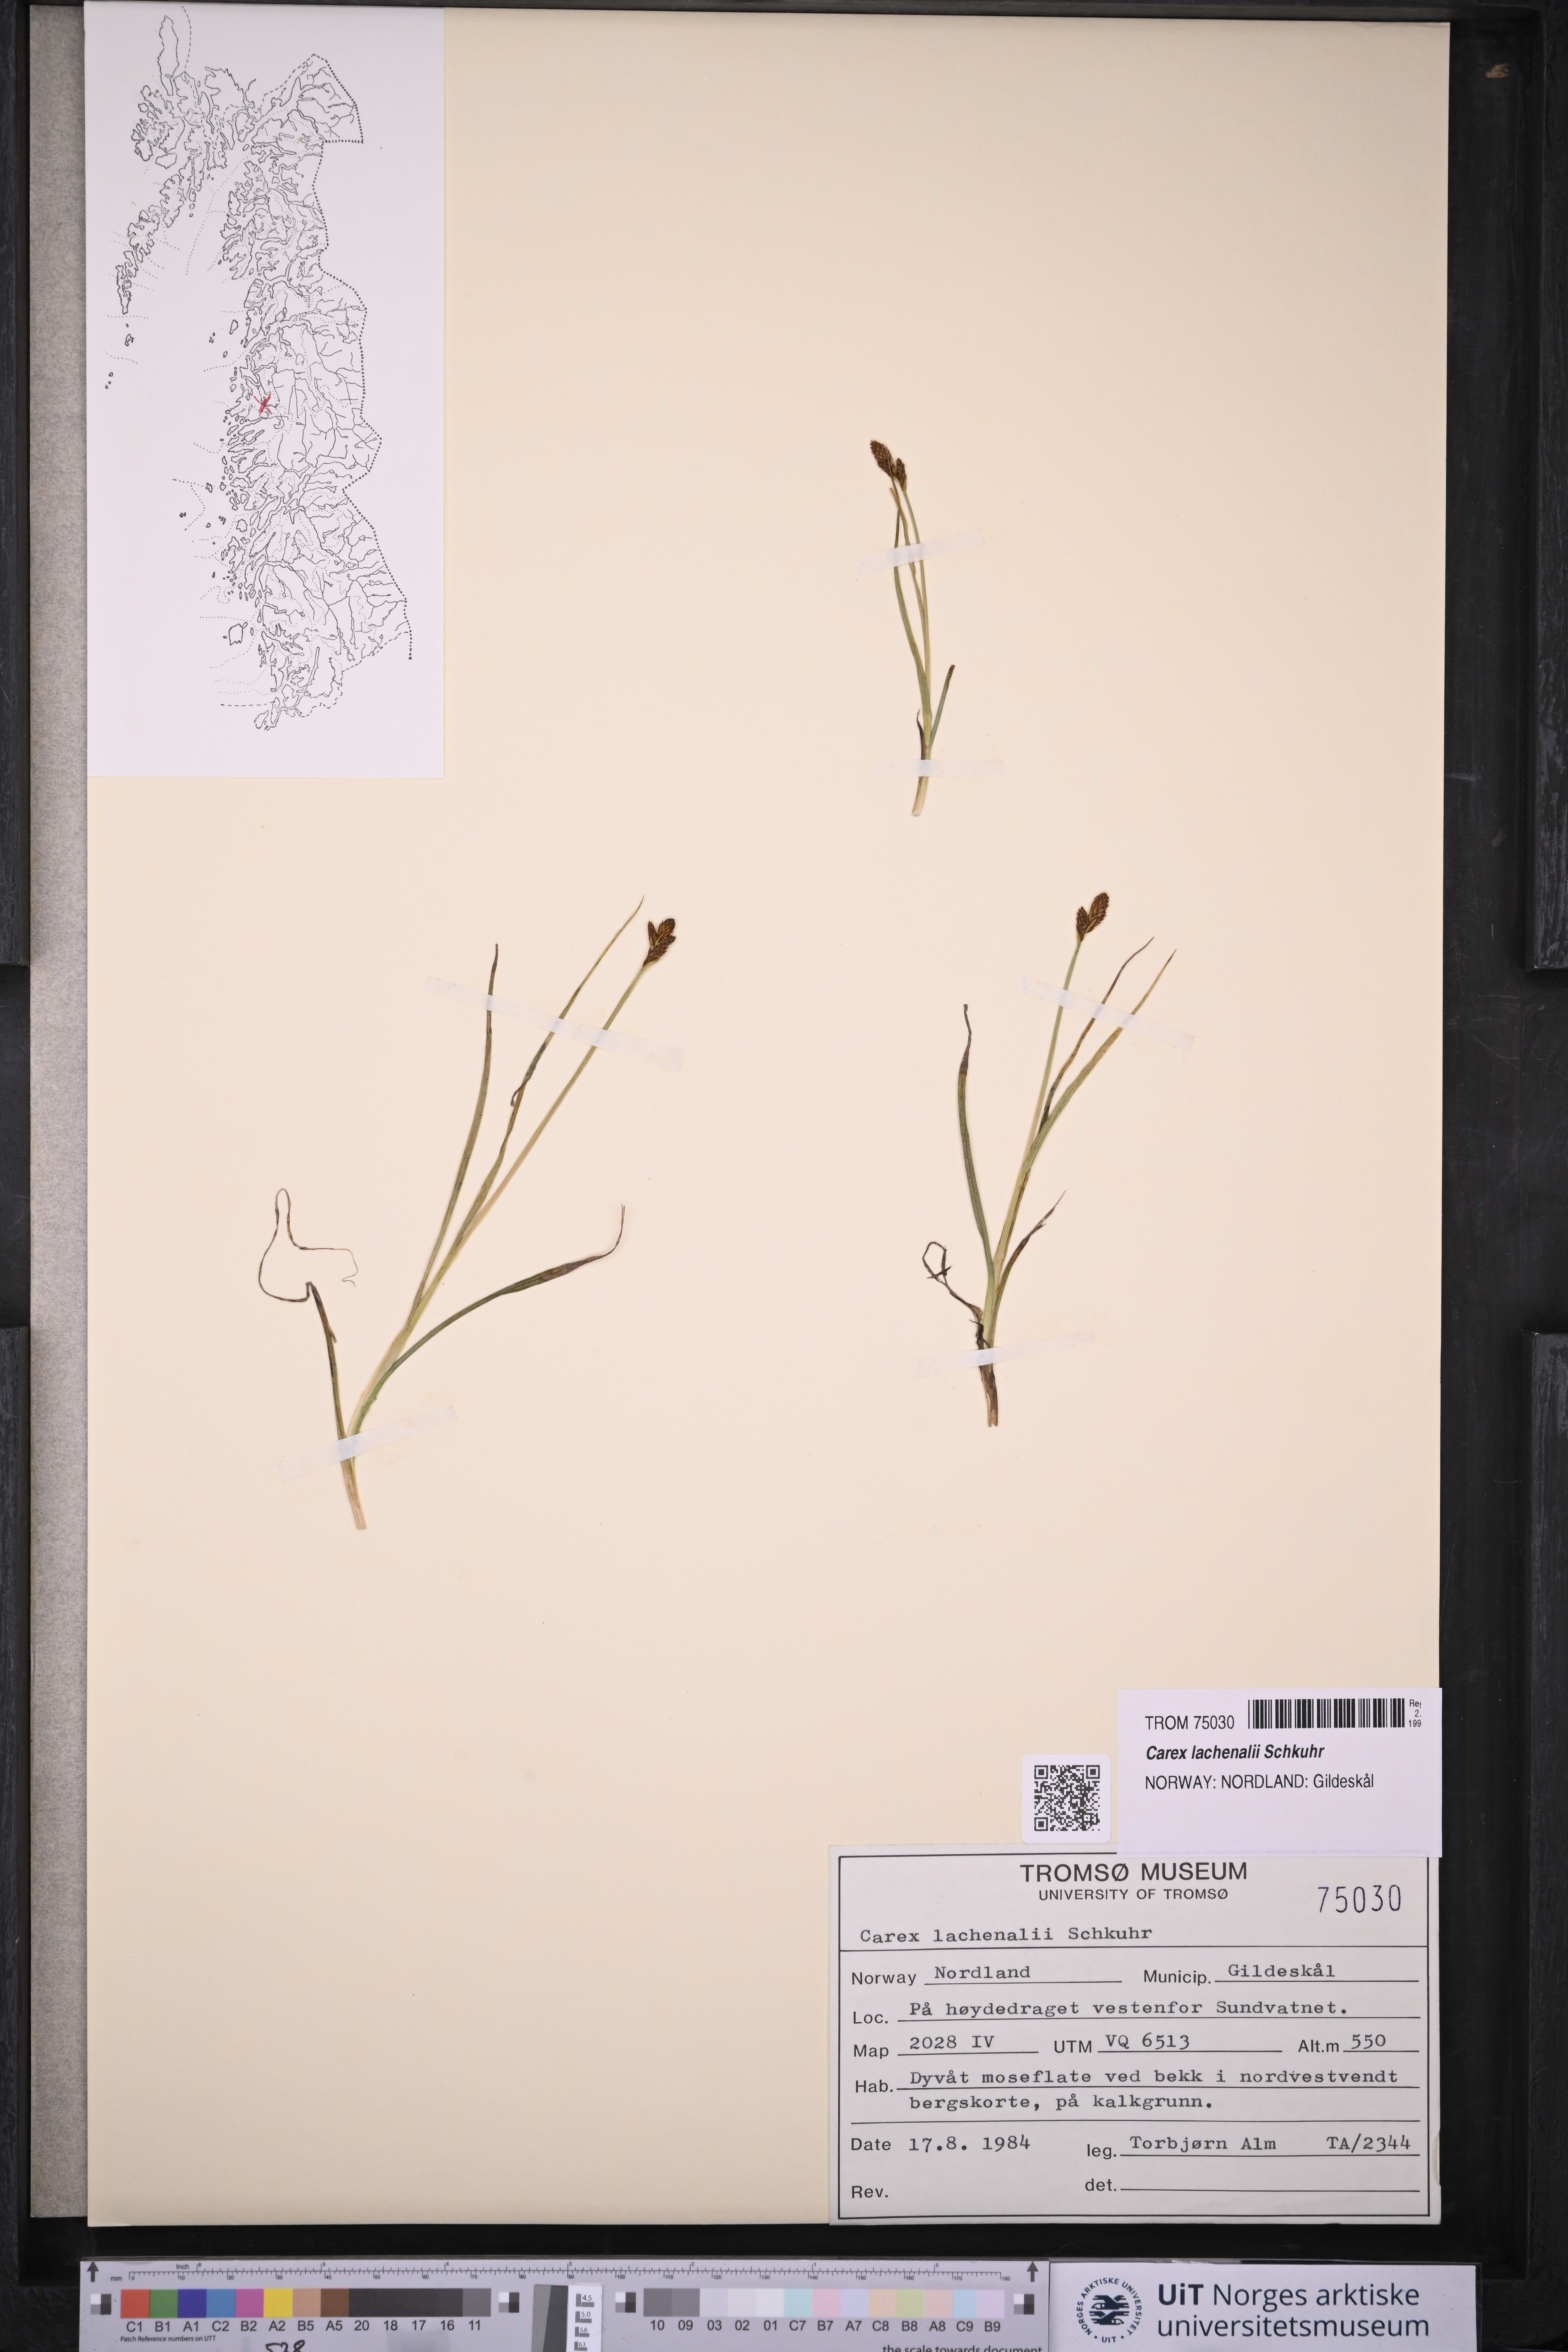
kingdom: Plantae
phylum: Tracheophyta
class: Liliopsida
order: Poales
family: Cyperaceae
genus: Carex
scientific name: Carex lachenalii
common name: Hare's-foot sedge
